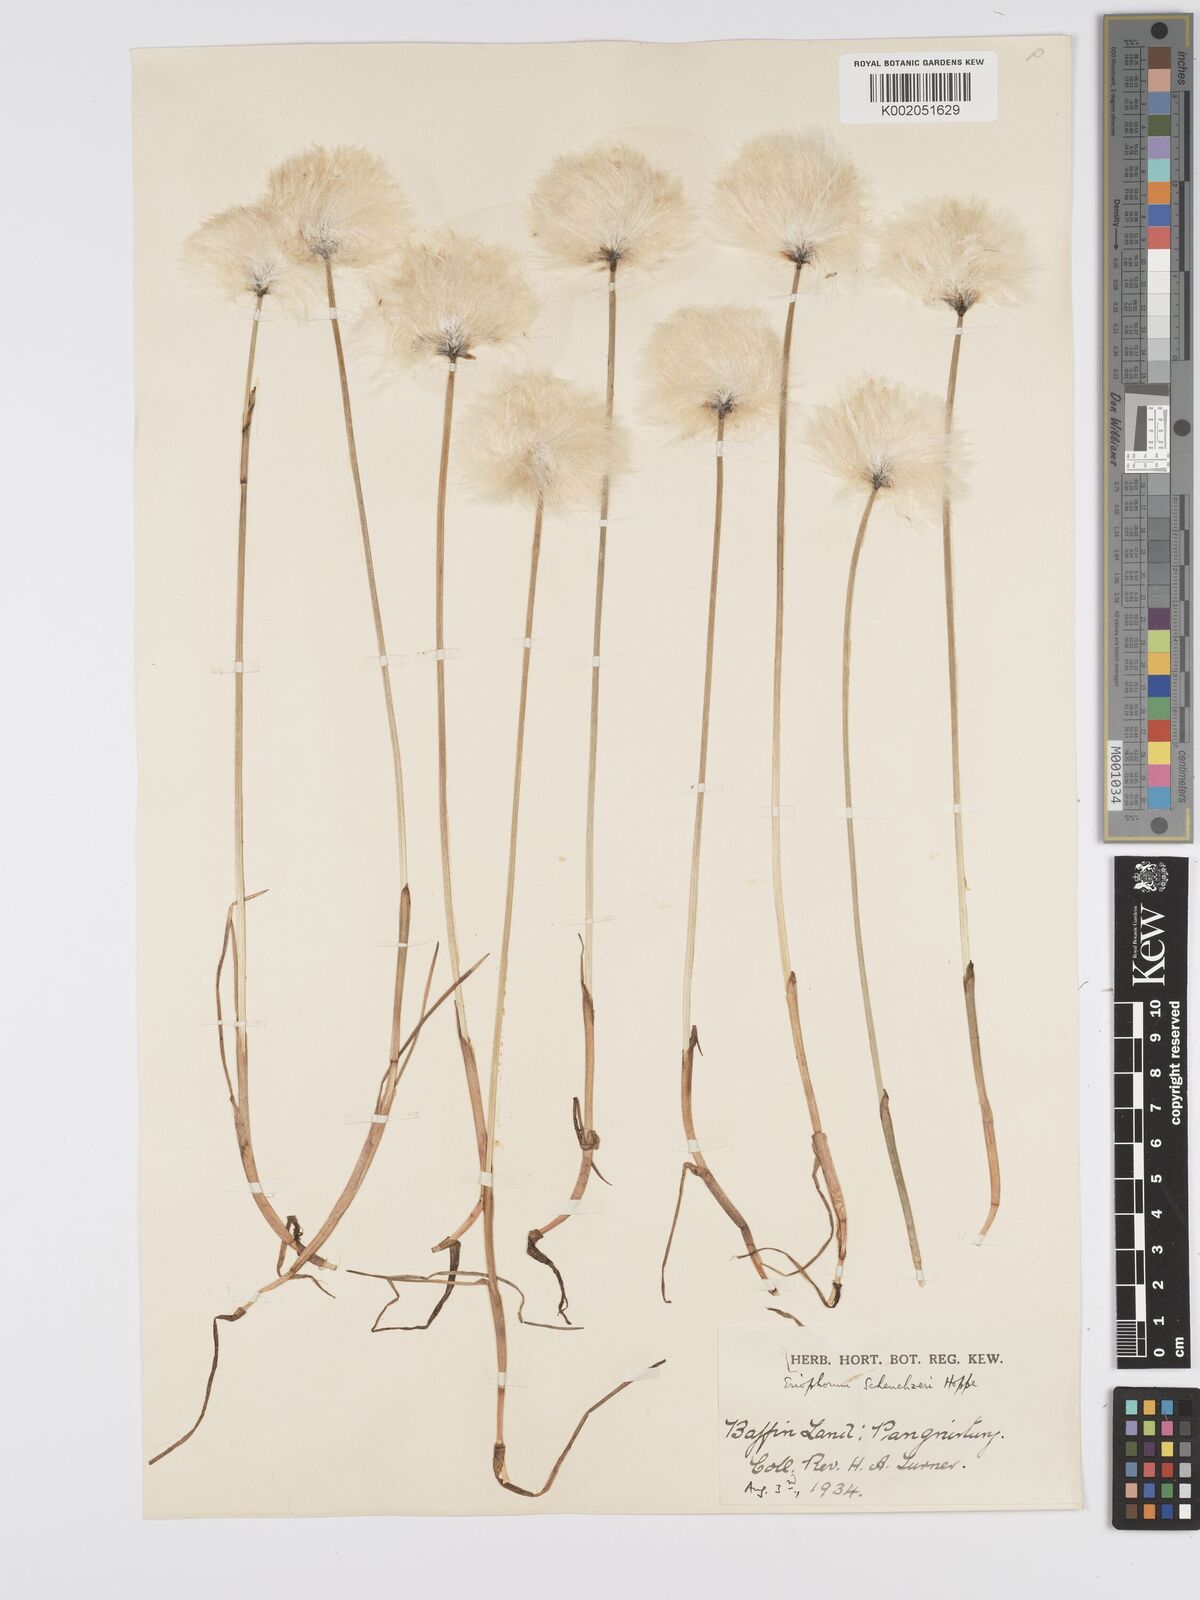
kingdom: Plantae
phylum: Tracheophyta
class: Liliopsida
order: Poales
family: Cyperaceae
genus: Eriophorum
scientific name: Eriophorum scheuchzeri
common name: Scheuchzer's cottongrass
